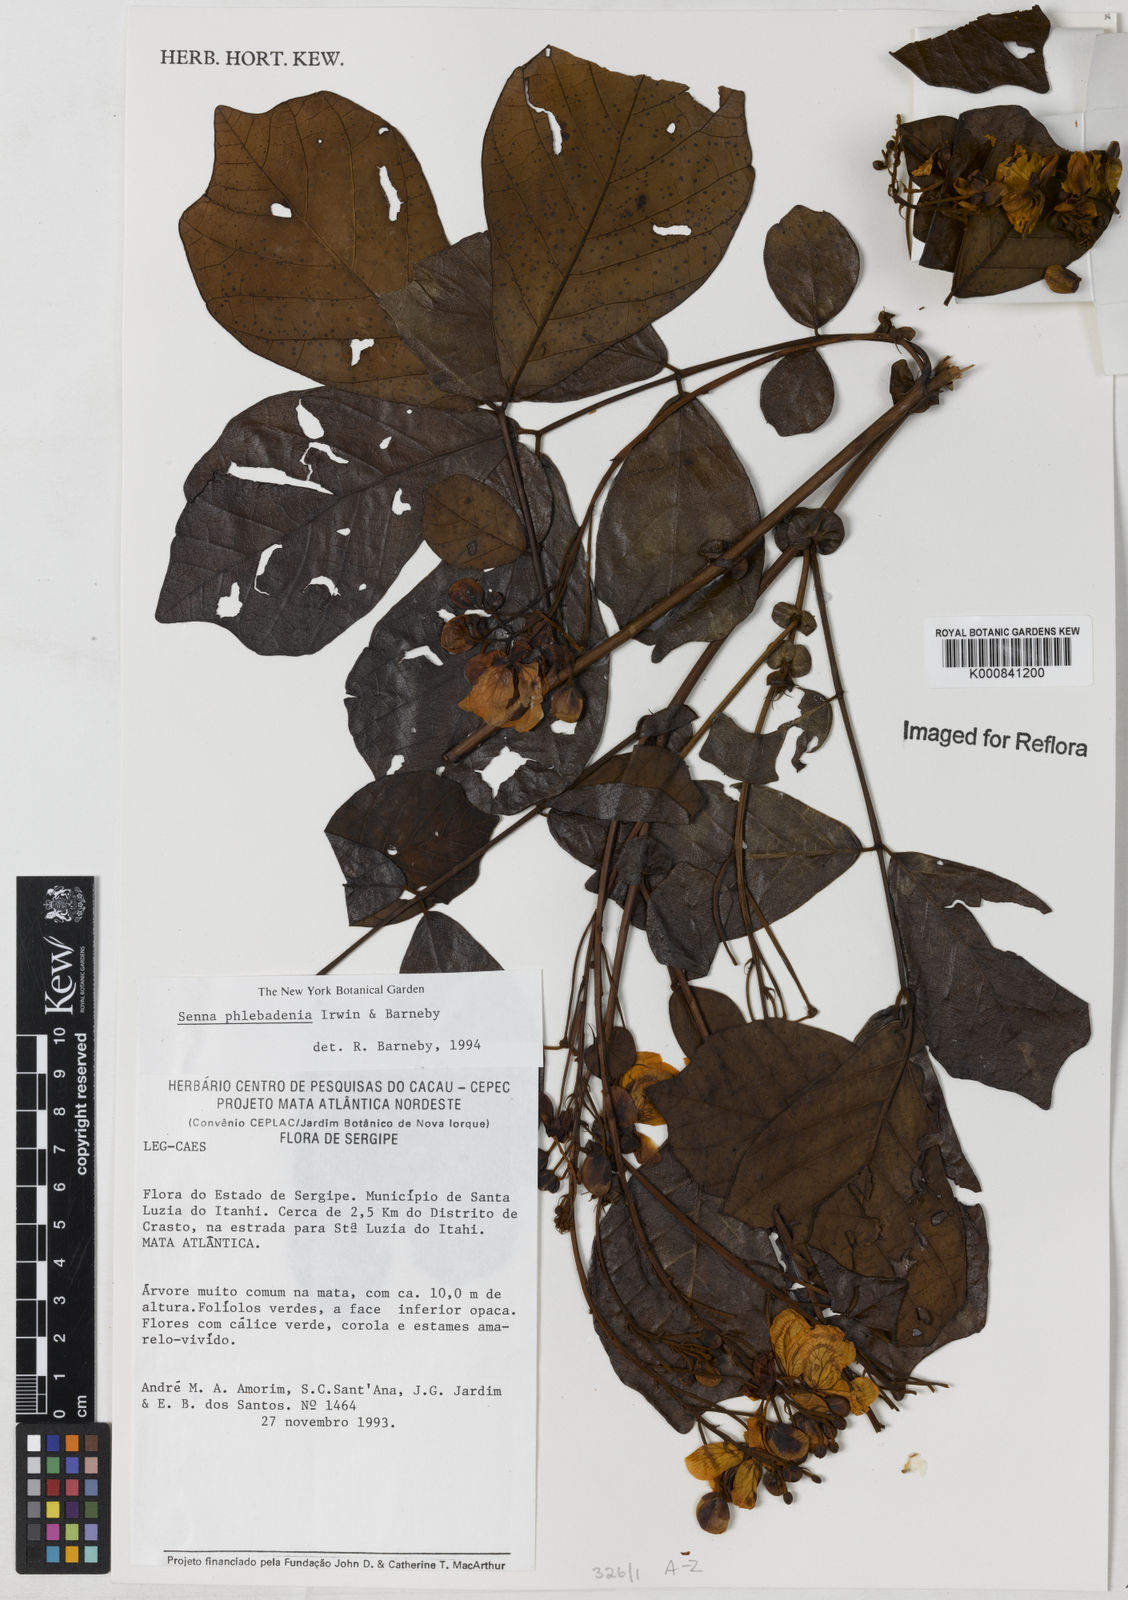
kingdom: Plantae
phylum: Tracheophyta
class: Magnoliopsida
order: Fabales
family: Fabaceae
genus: Senna
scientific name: Senna phlebadenia
